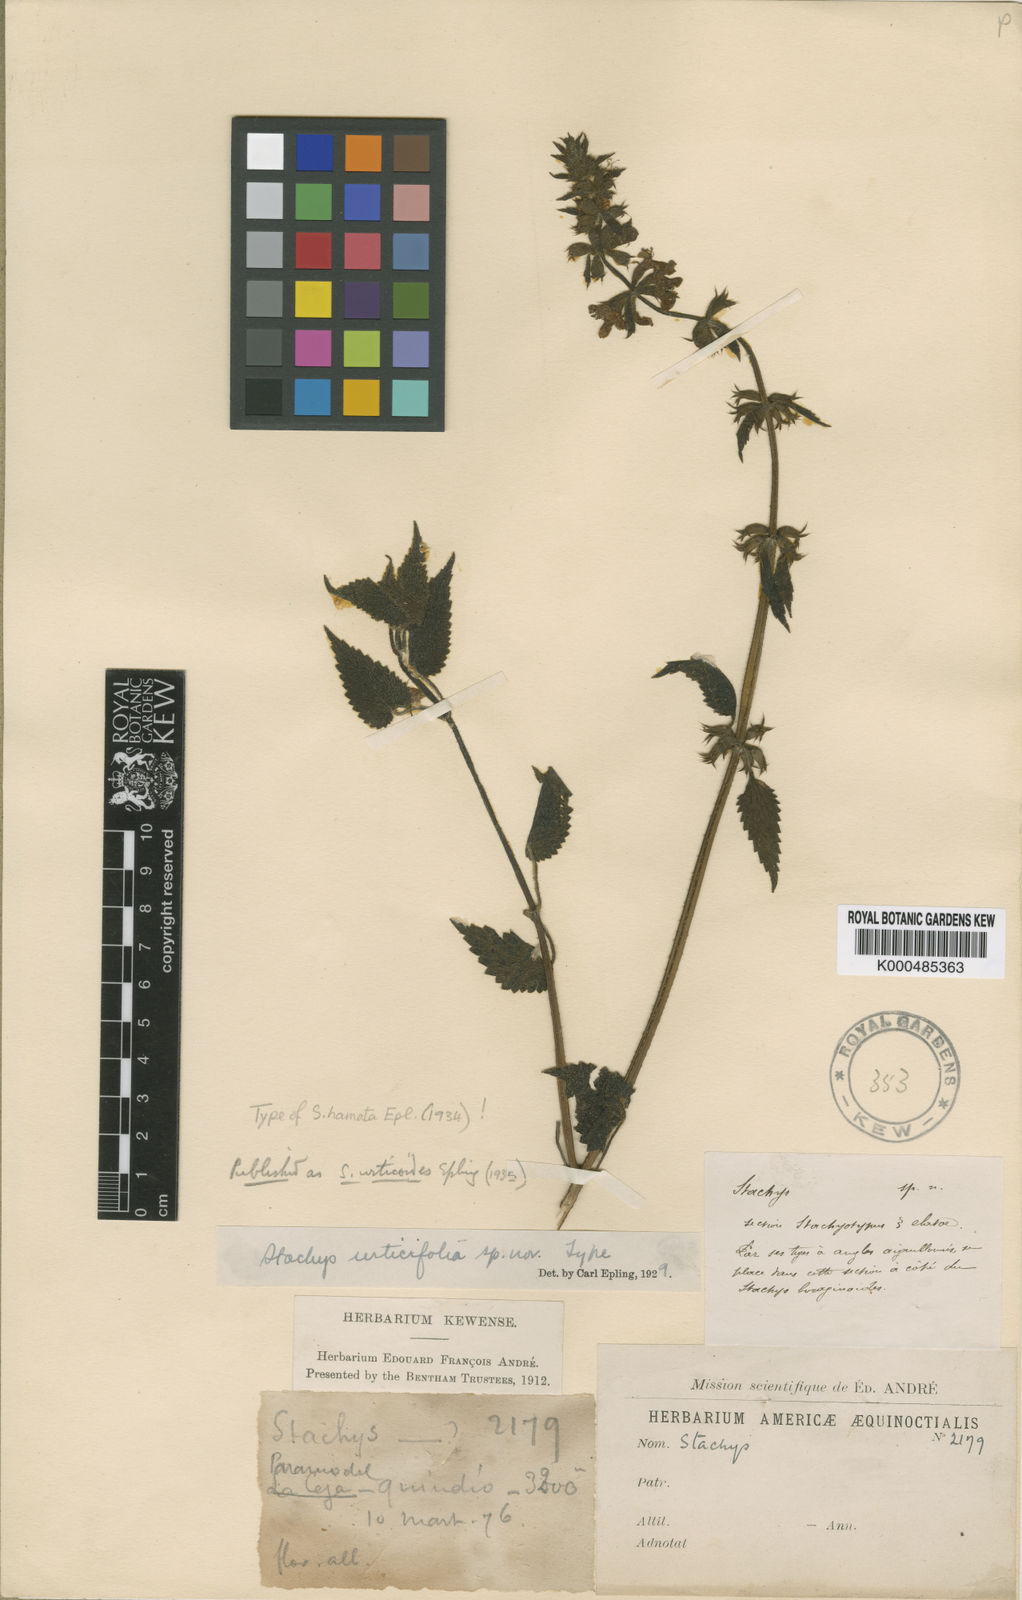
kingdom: Plantae
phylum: Tracheophyta
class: Magnoliopsida
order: Lamiales
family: Lamiaceae
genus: Stachys
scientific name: Stachys urticoides
